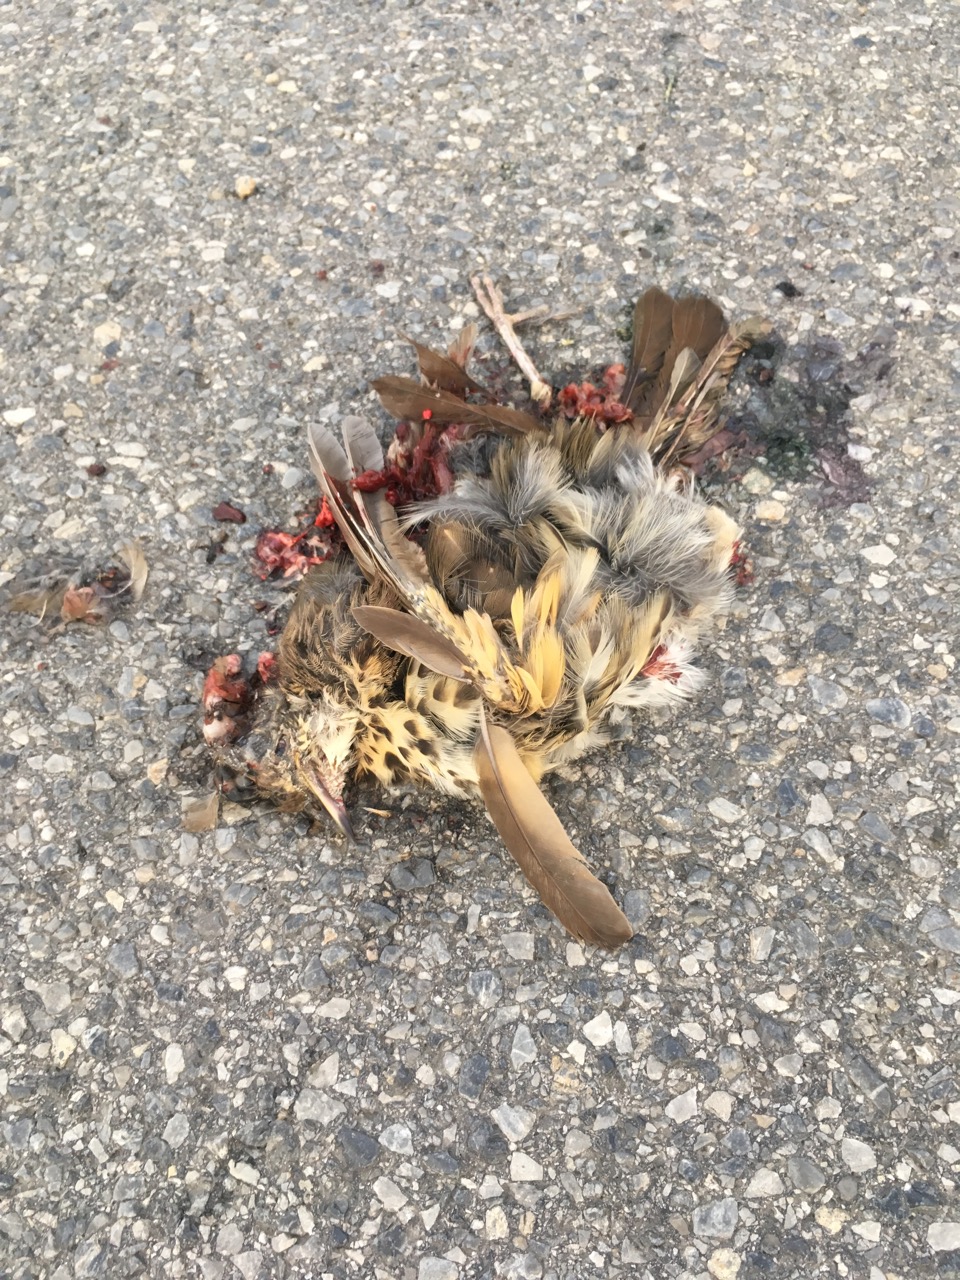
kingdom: Animalia
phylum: Chordata
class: Aves
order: Passeriformes
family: Turdidae
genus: Turdus
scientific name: Turdus philomelos
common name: Song thrush
